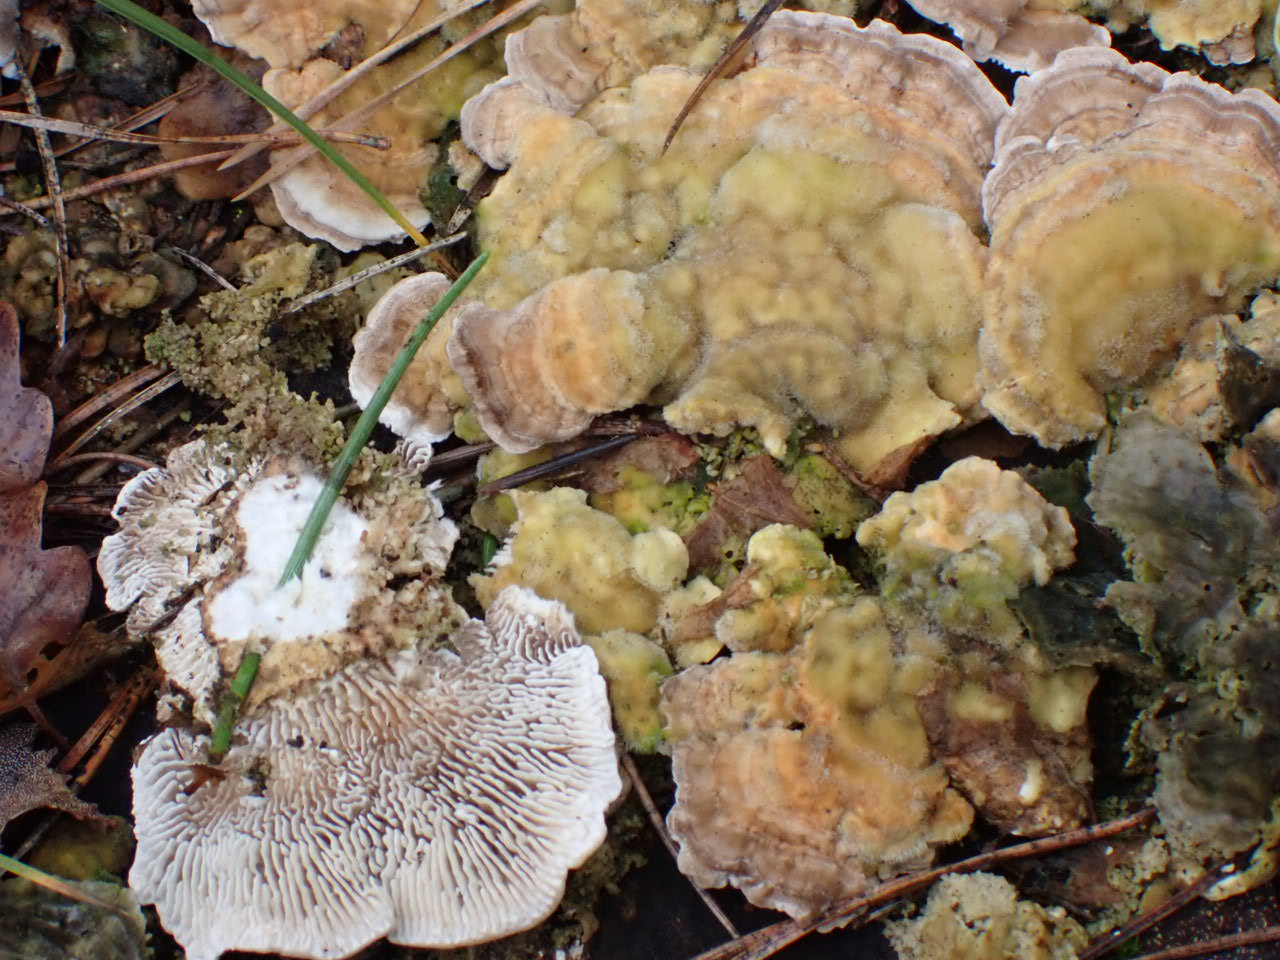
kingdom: Fungi
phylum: Basidiomycota
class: Agaricomycetes
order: Polyporales
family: Polyporaceae
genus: Lenzites
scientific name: Lenzites betulinus
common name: birke-læderporesvamp
